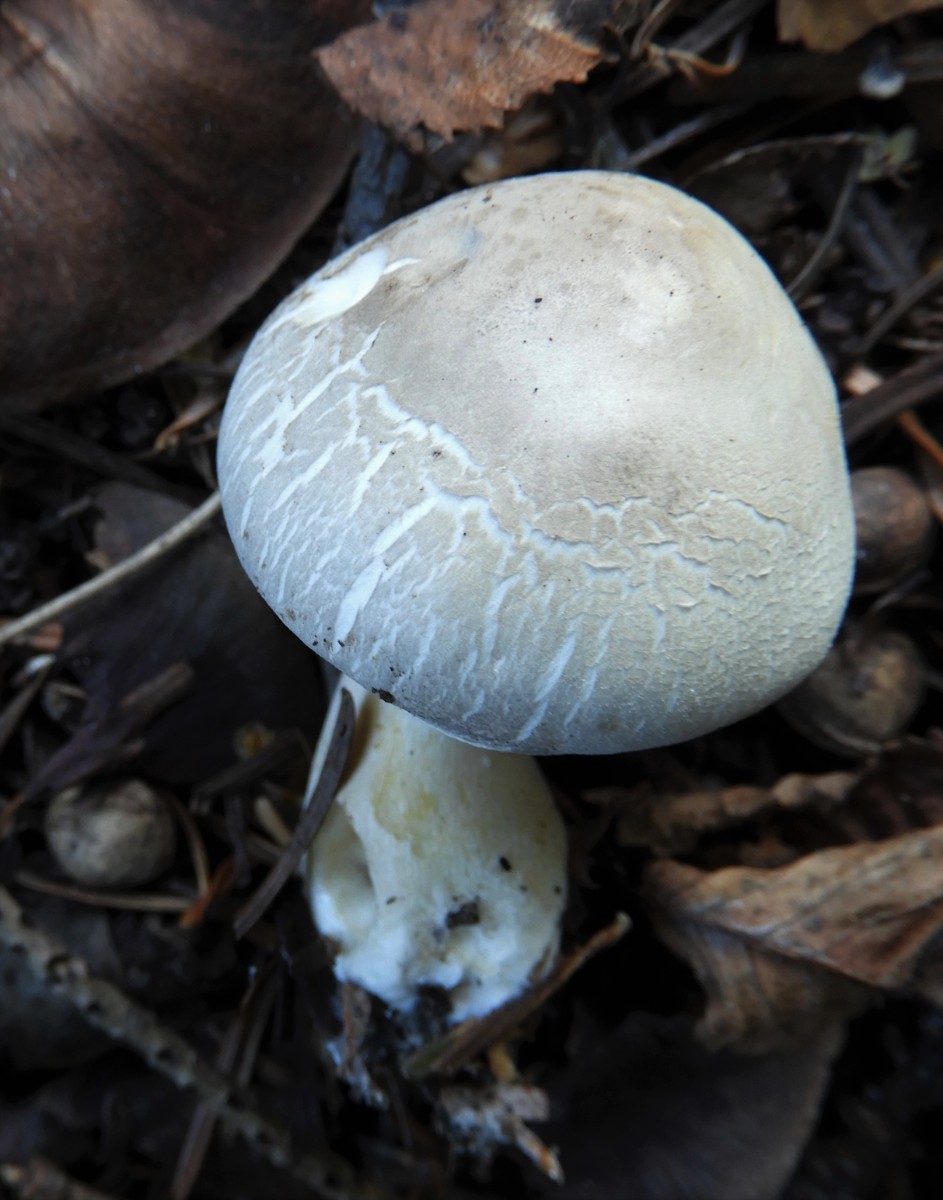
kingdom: Fungi
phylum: Basidiomycota
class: Agaricomycetes
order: Agaricales
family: Agaricaceae
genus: Leucoagaricus
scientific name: Leucoagaricus carneifolius
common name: grånende silkehat
